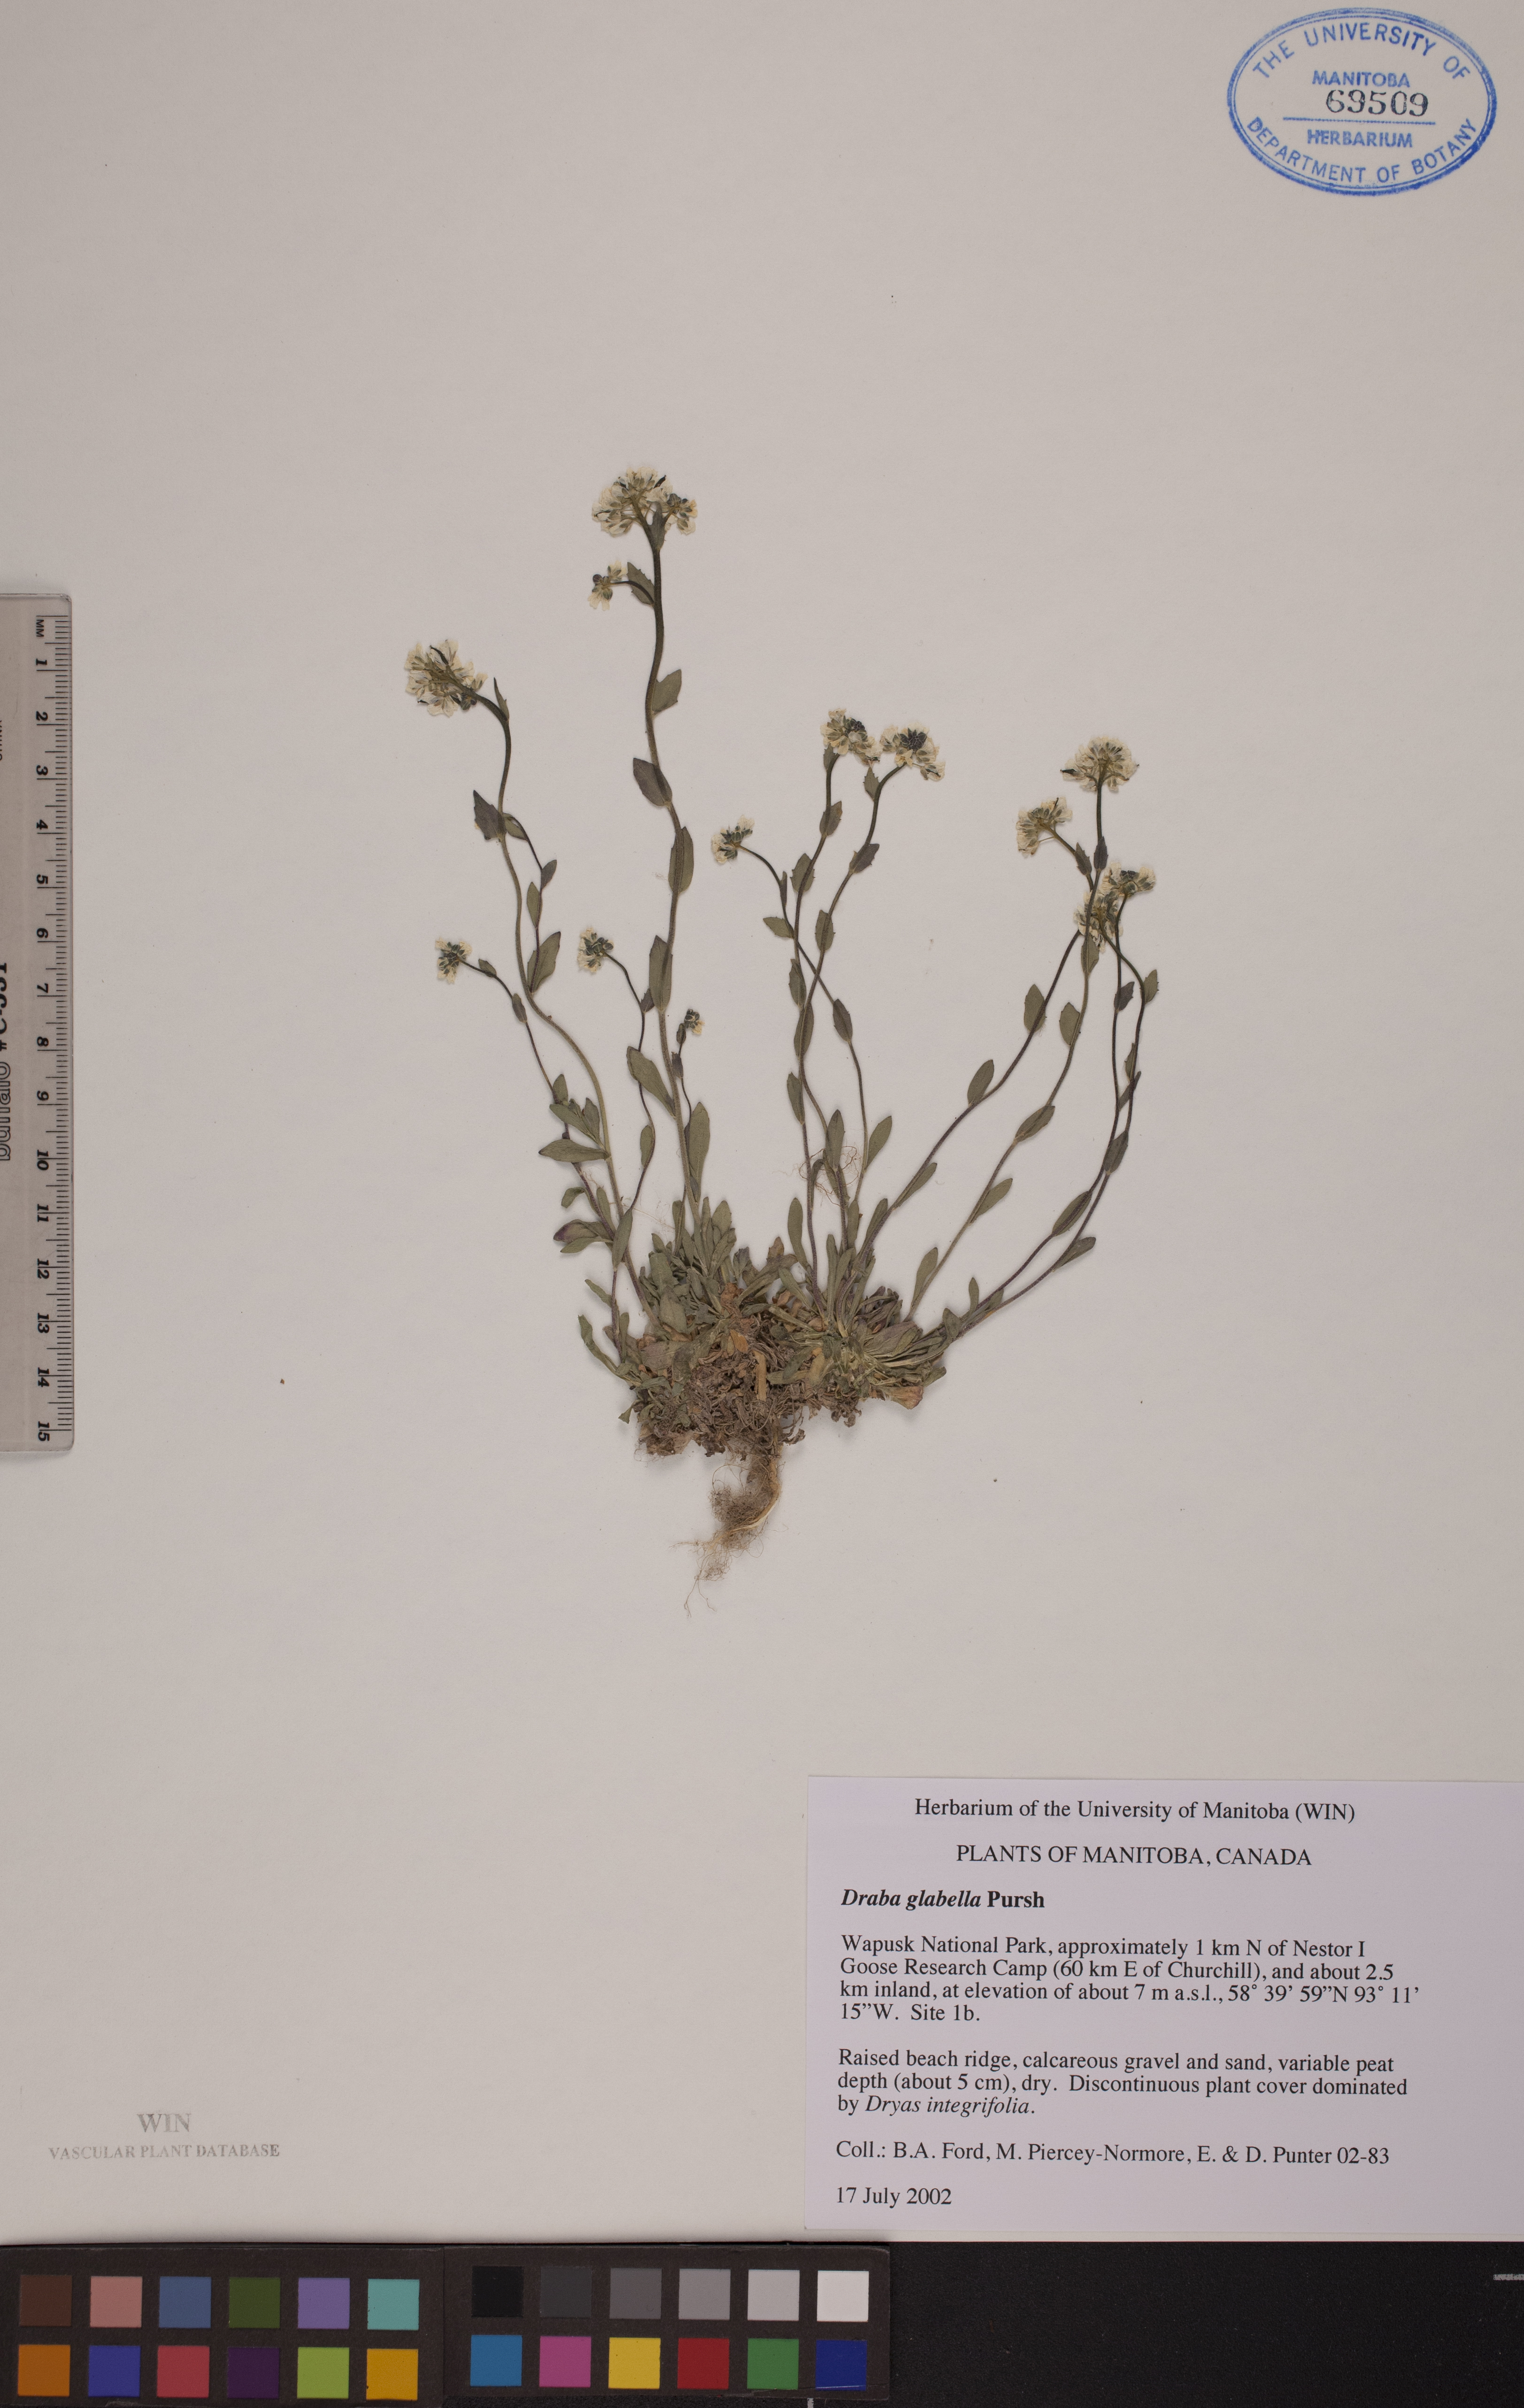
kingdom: Plantae
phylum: Tracheophyta
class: Magnoliopsida
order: Brassicales
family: Brassicaceae
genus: Draba
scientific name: Draba glabella
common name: Glaucous draba
